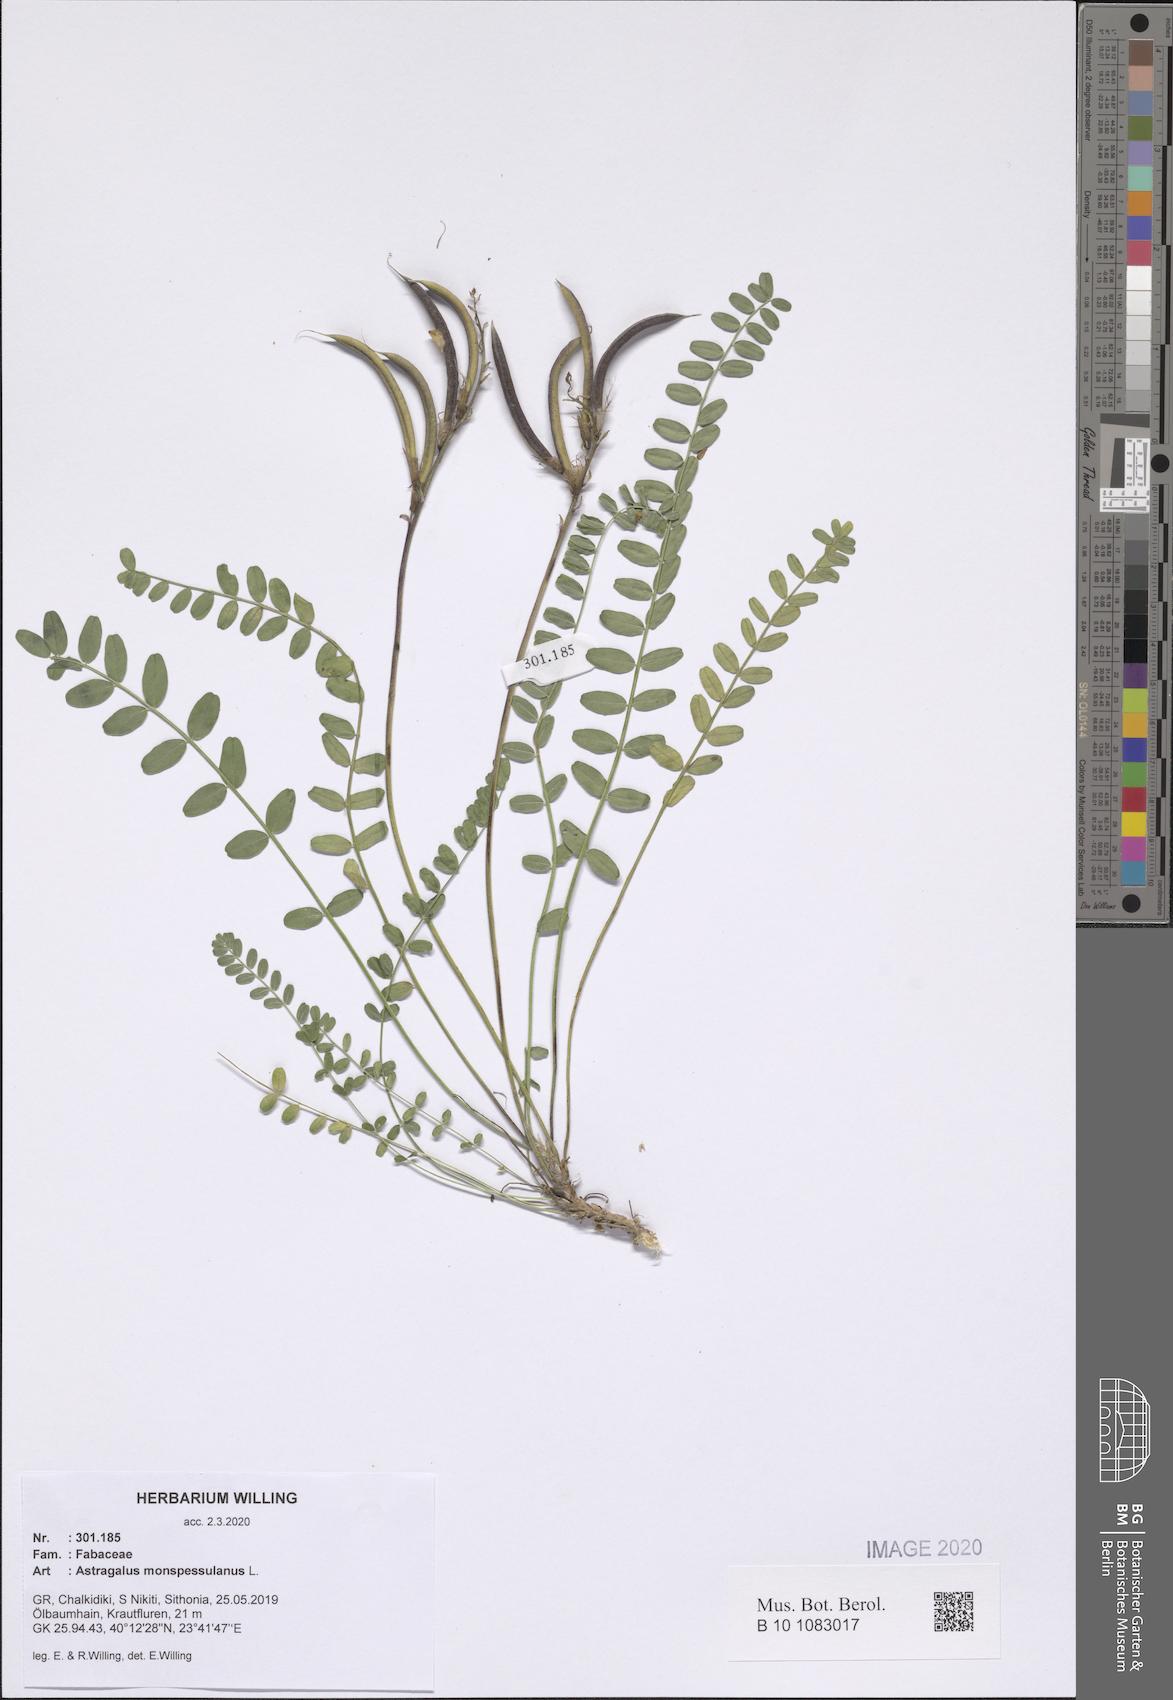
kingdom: Plantae
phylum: Tracheophyta
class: Magnoliopsida
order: Fabales
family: Fabaceae
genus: Astragalus
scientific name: Astragalus monspessulanus
